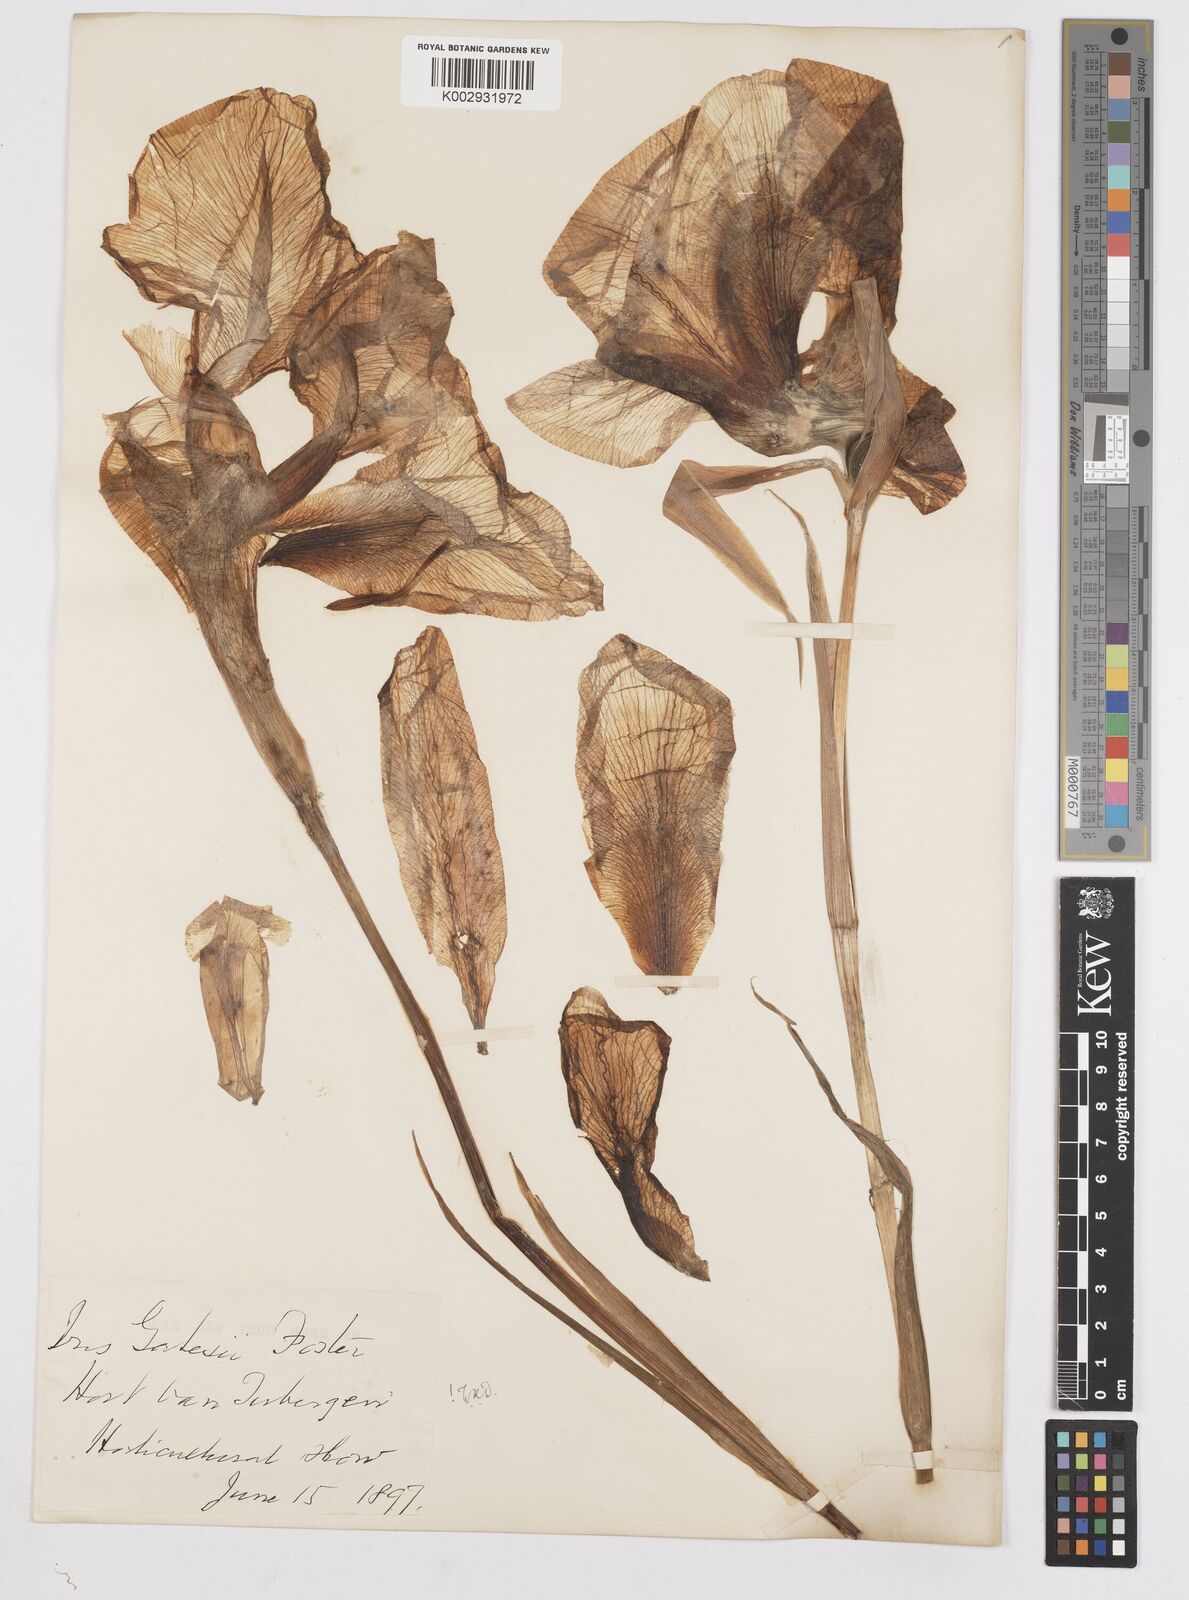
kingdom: Plantae
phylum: Tracheophyta
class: Liliopsida
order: Asparagales
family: Iridaceae
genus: Iris
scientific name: Iris gatesii
